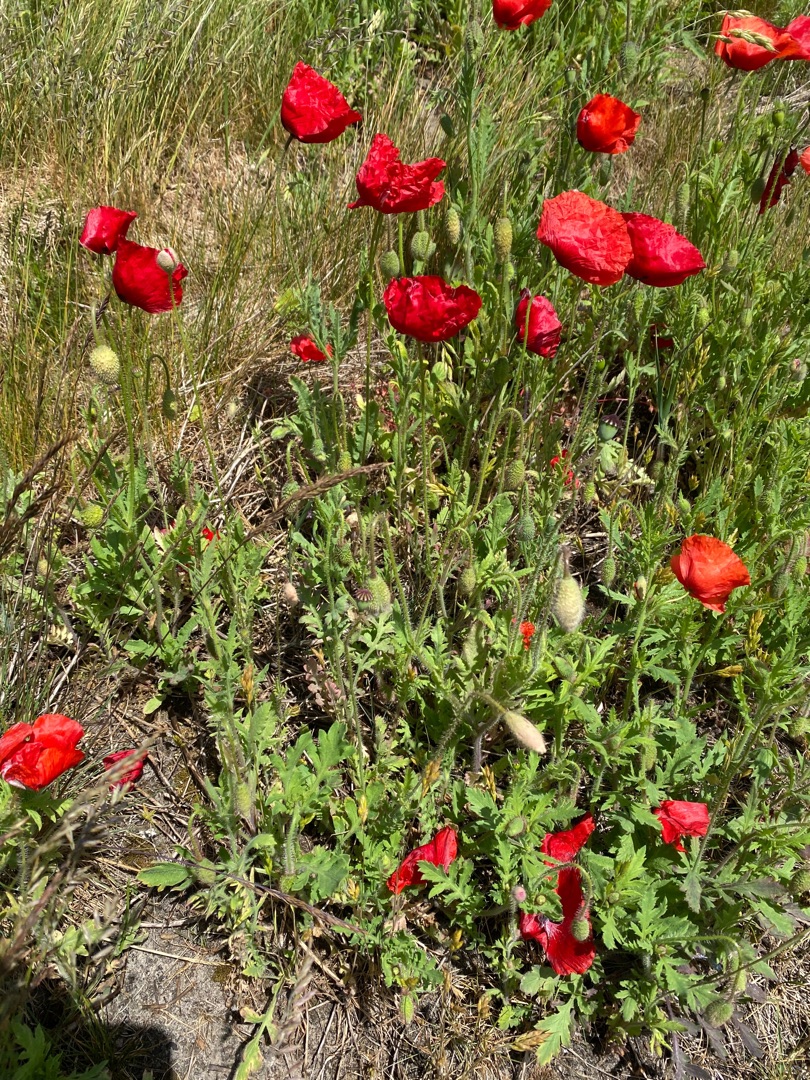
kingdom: Plantae
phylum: Tracheophyta
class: Magnoliopsida
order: Ranunculales
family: Papaveraceae
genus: Papaver
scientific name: Papaver rhoeas
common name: Korn-valmue
